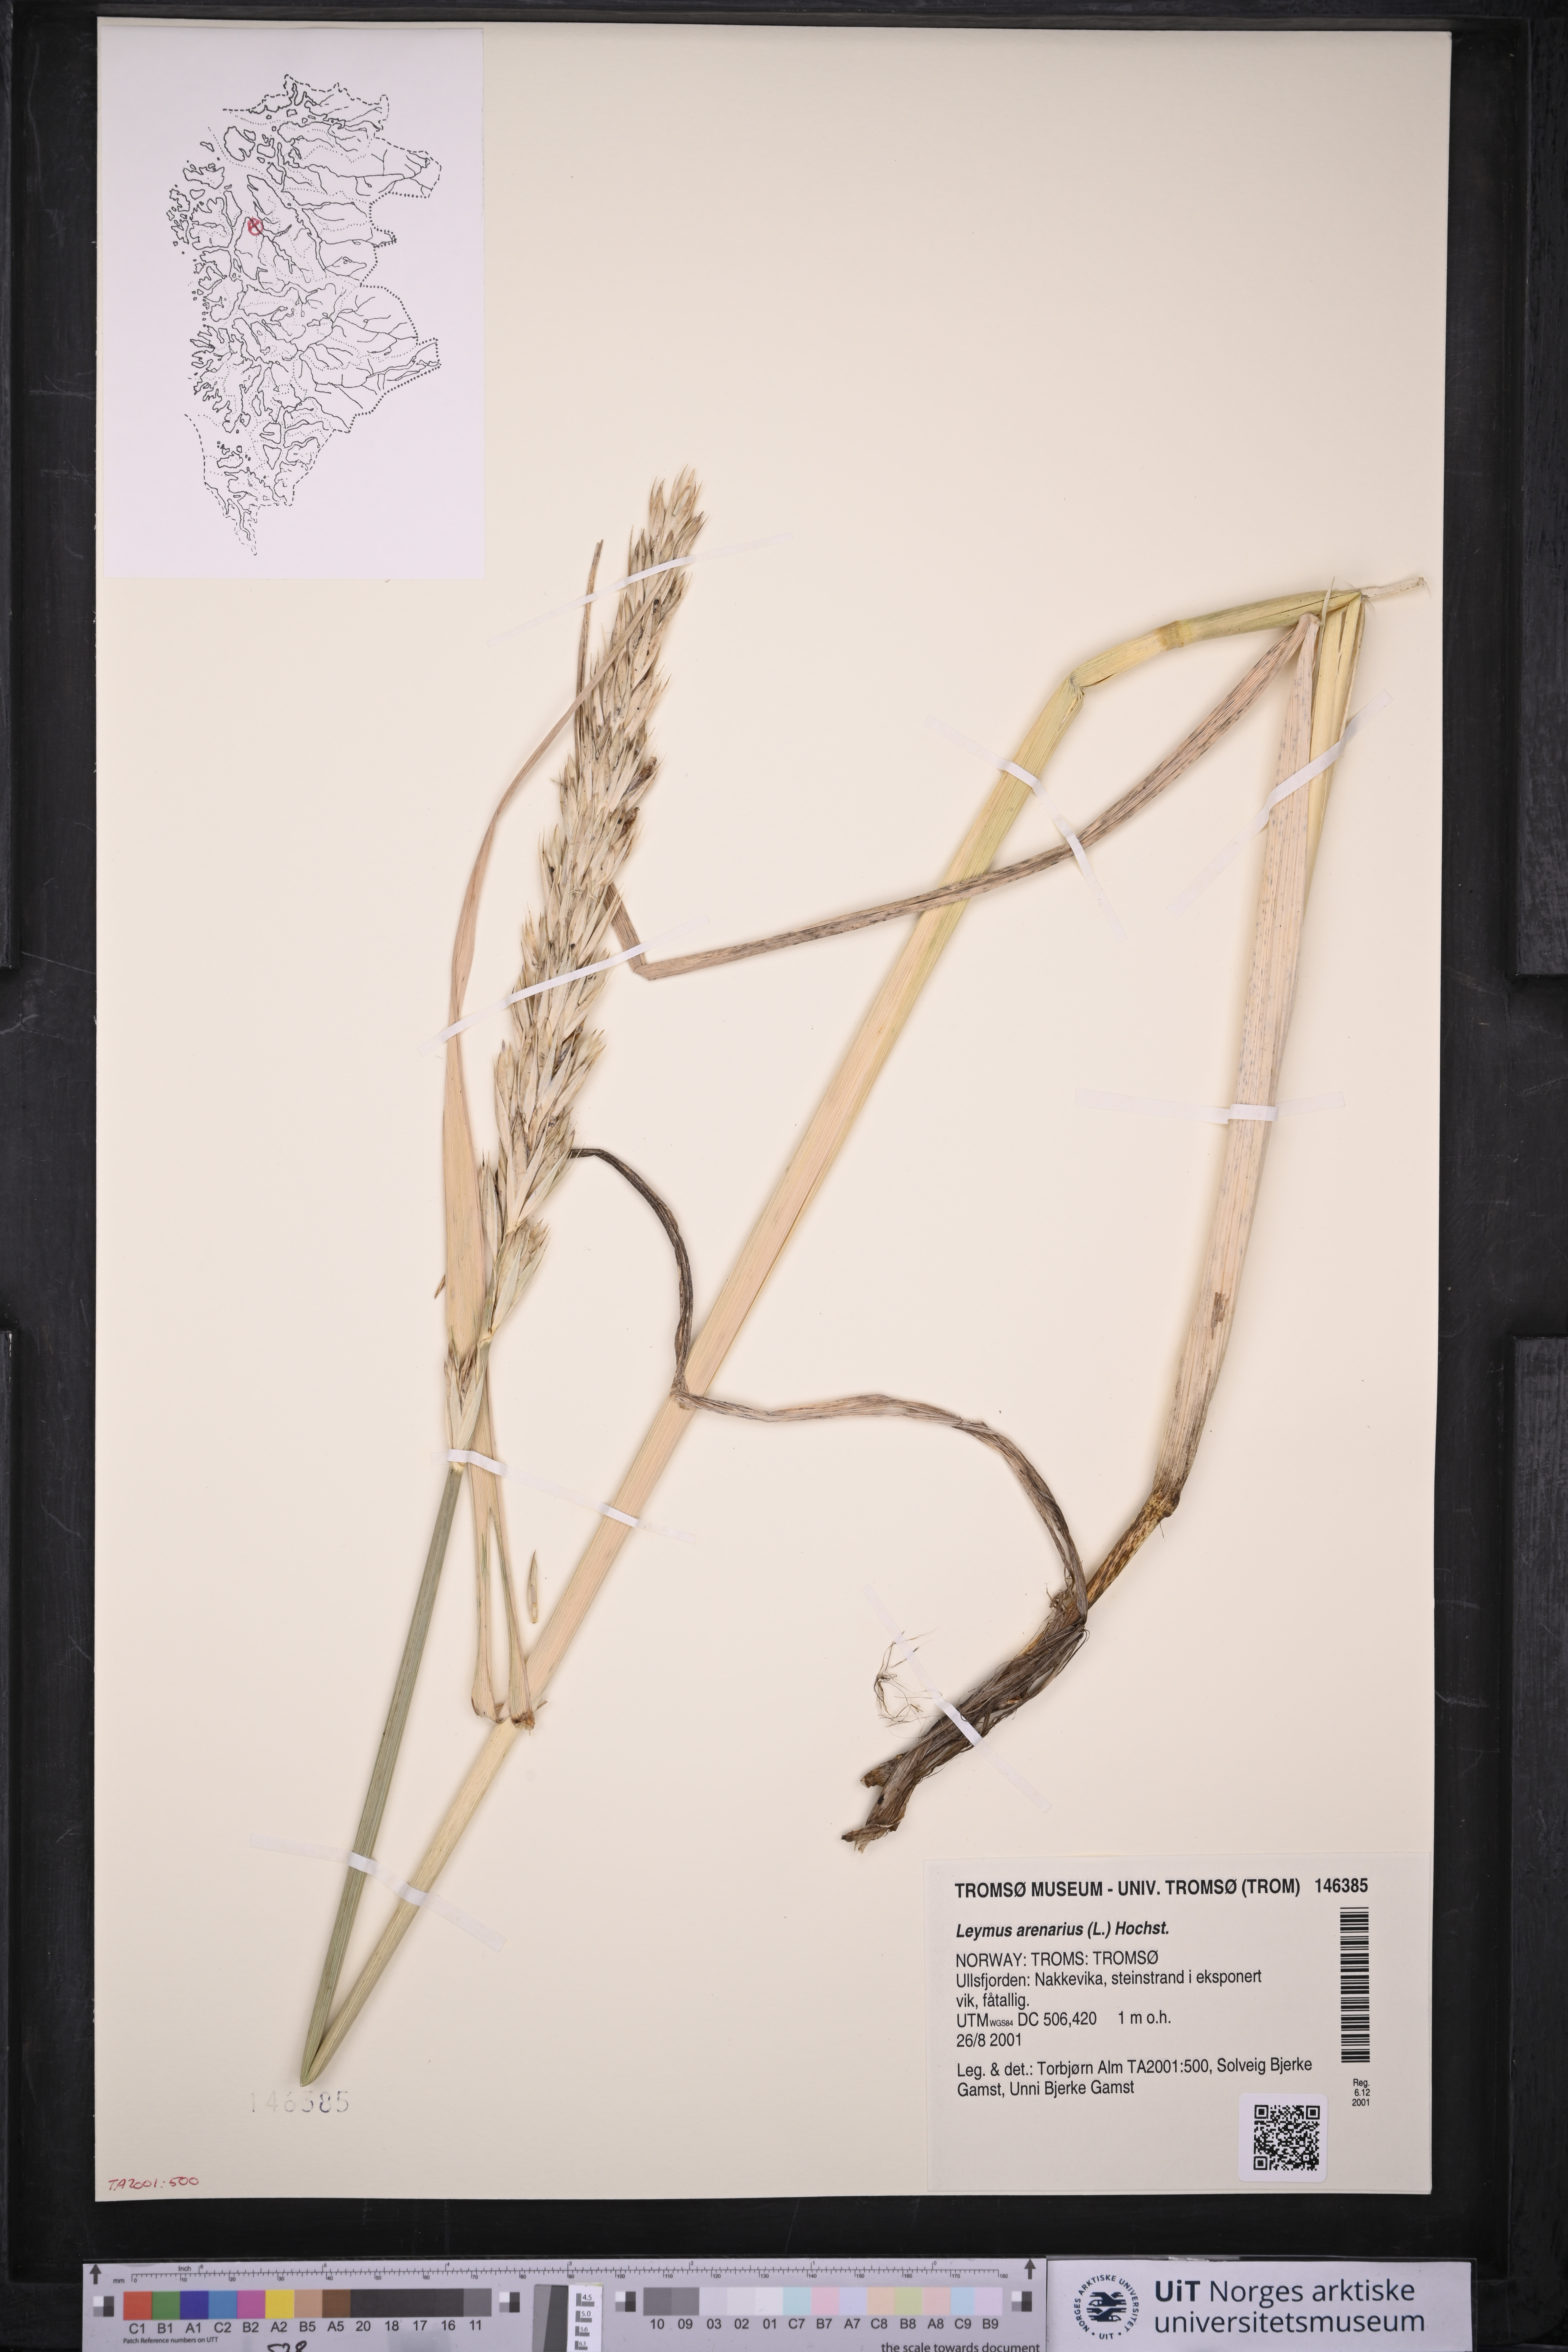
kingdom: Plantae
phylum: Tracheophyta
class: Liliopsida
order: Poales
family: Poaceae
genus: Leymus
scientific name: Leymus arenarius
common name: Lyme-grass
